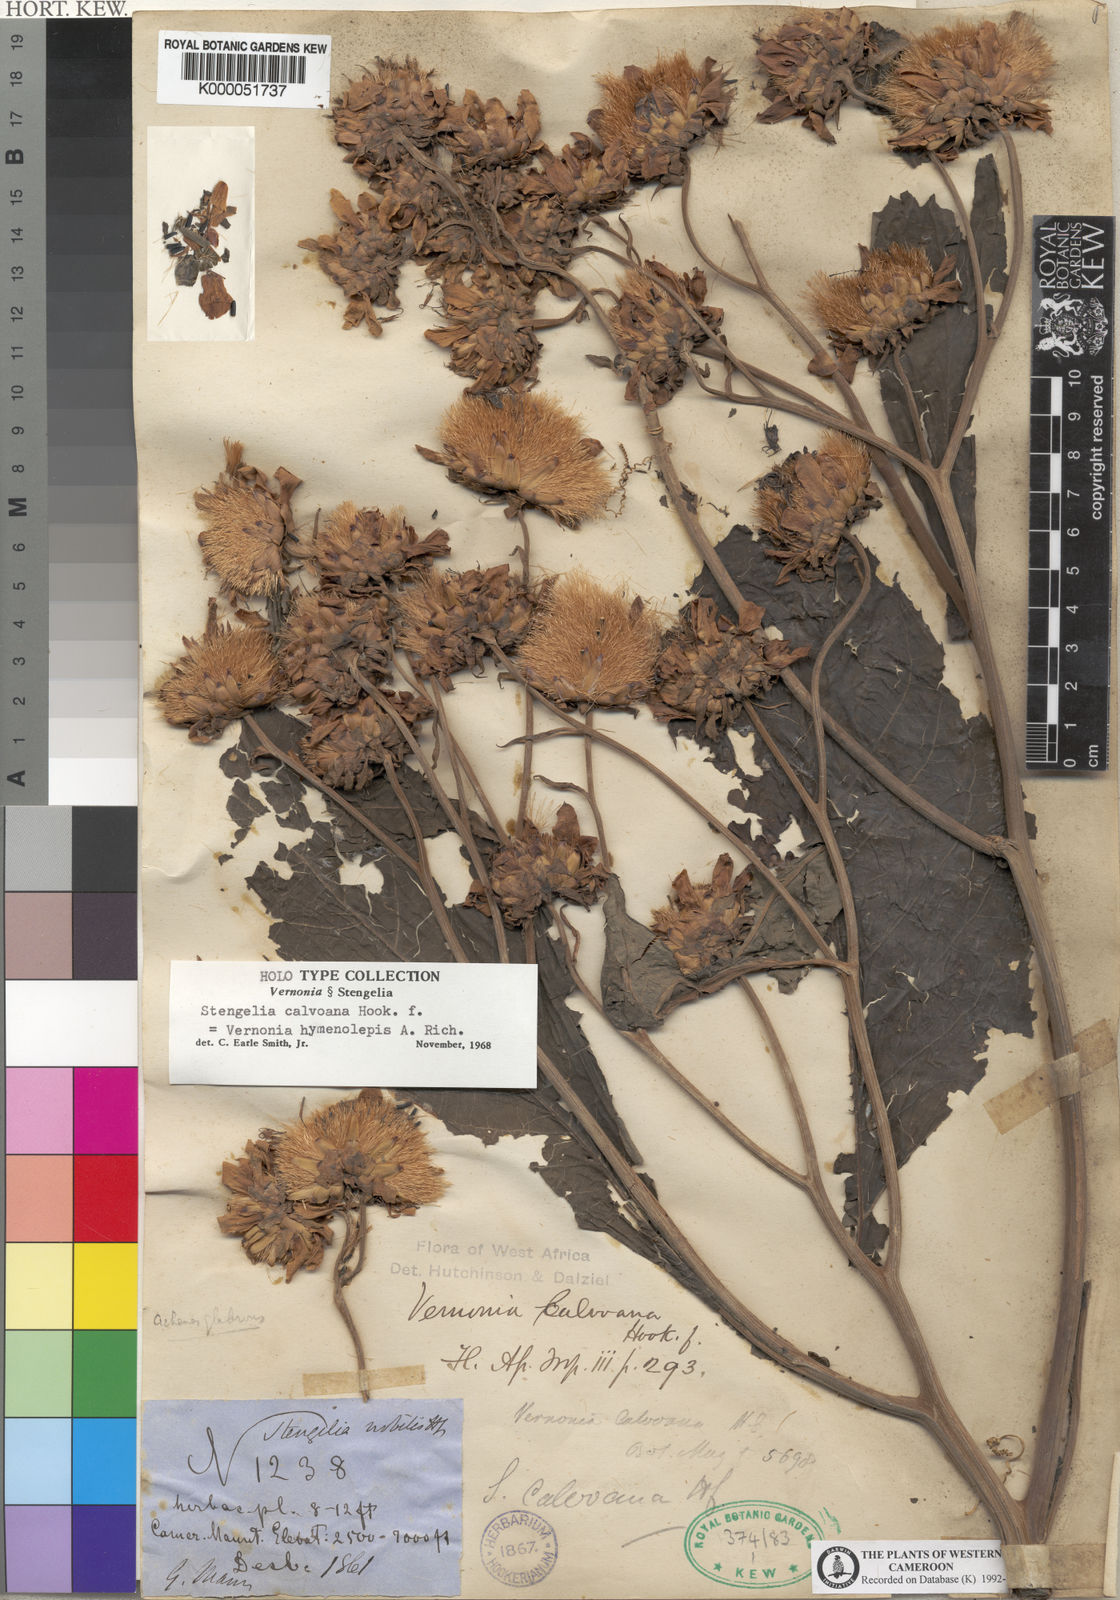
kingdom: Plantae
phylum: Tracheophyta
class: Magnoliopsida
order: Asterales
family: Asteraceae
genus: Baccharoides
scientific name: Baccharoides hymenolepis
